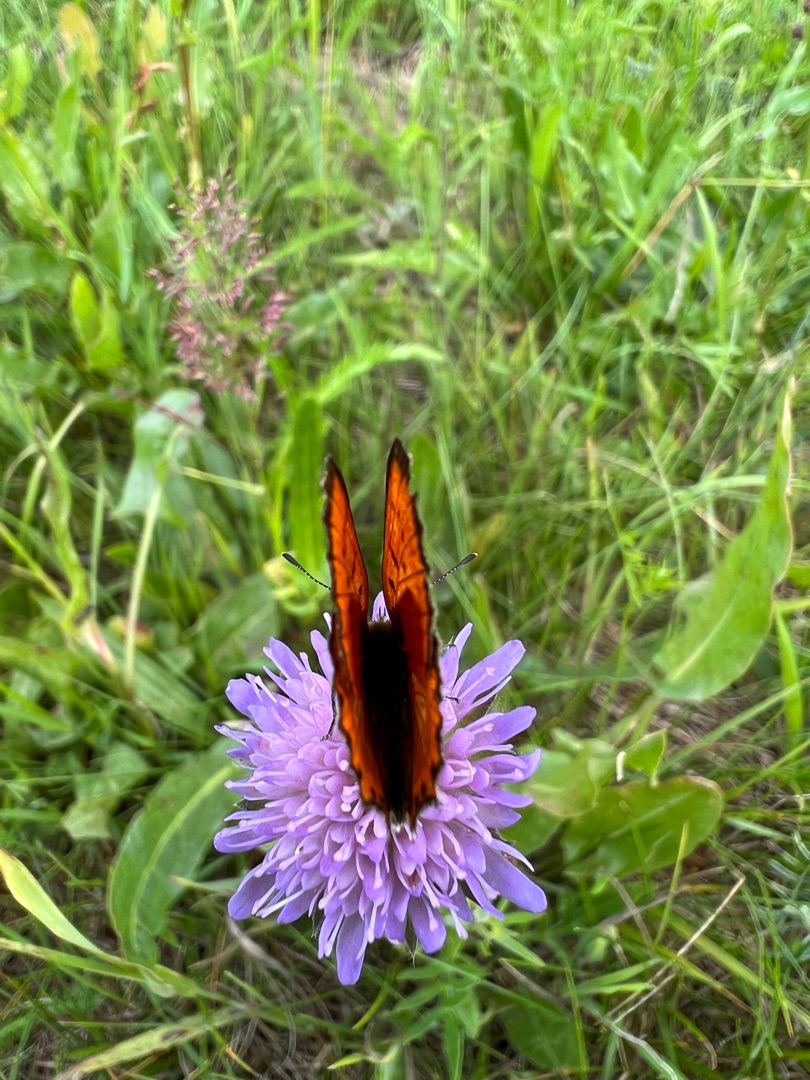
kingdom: Animalia
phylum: Arthropoda
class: Insecta
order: Lepidoptera
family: Lycaenidae
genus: Lycaena
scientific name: Lycaena virgaureae
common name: Dukatsommerfugl
